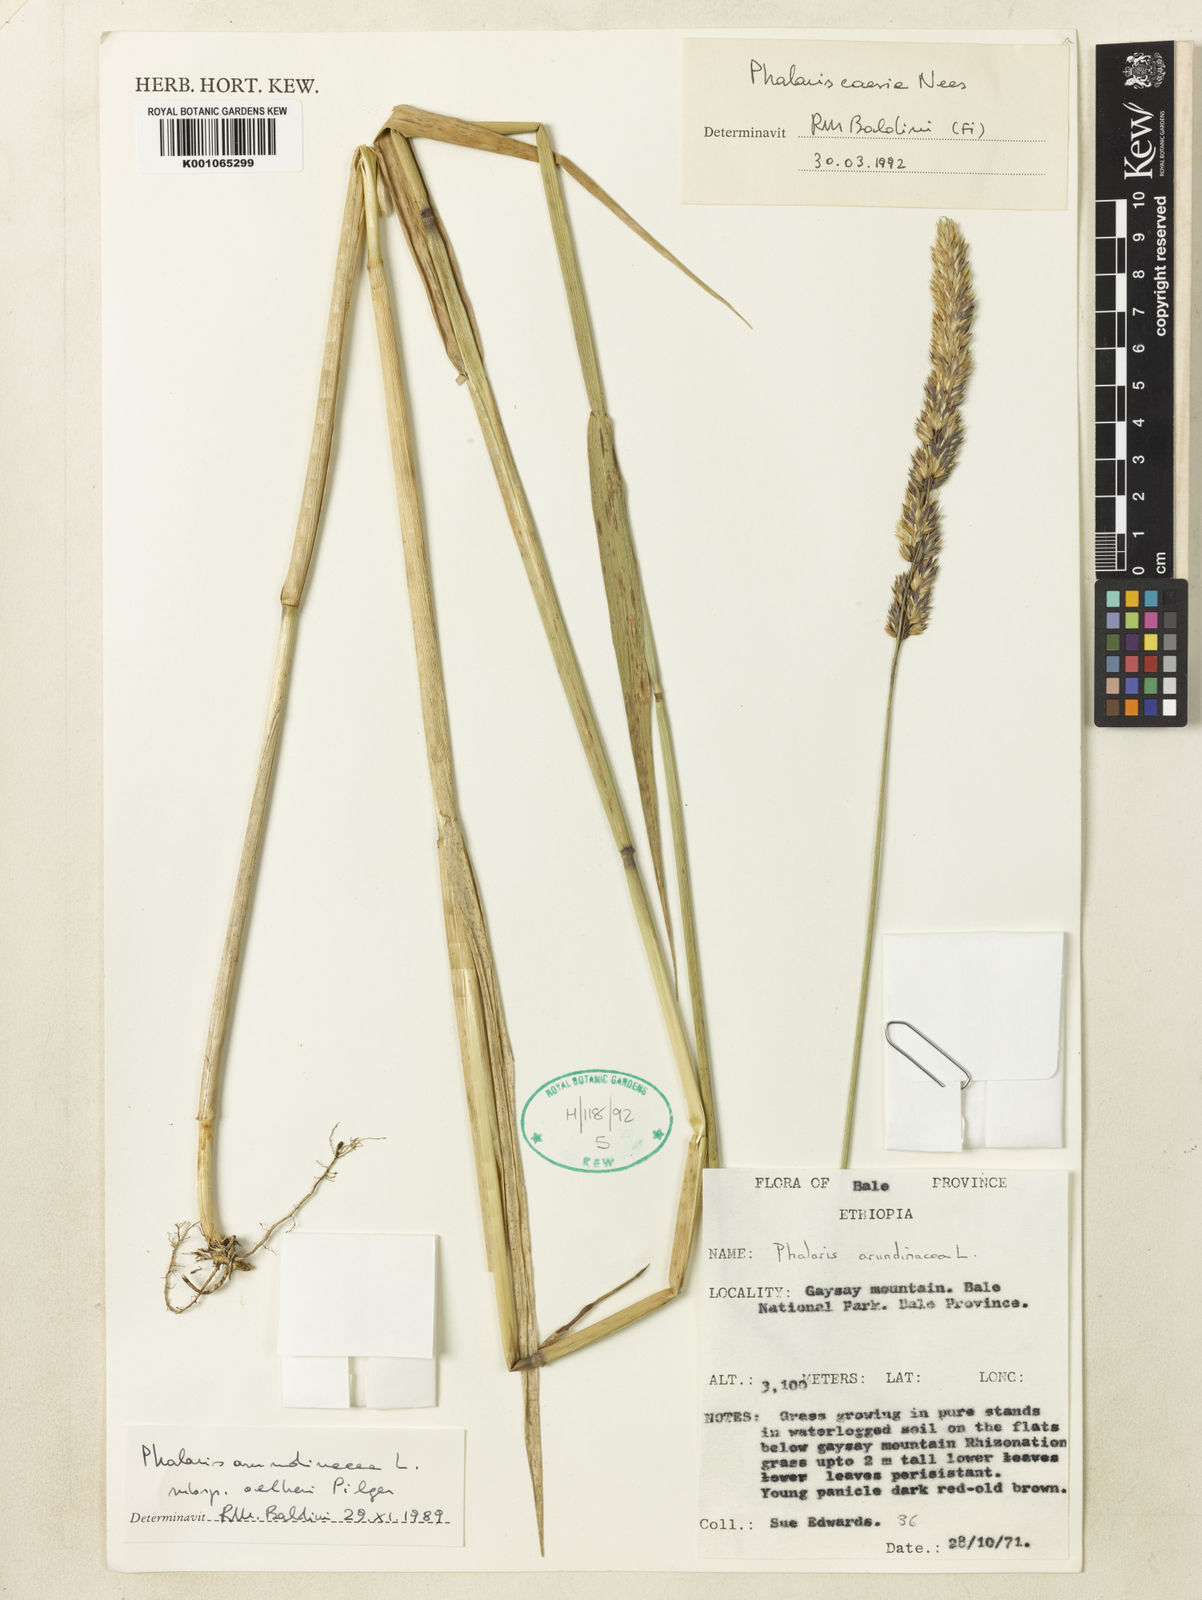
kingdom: Plantae
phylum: Tracheophyta
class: Liliopsida
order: Poales
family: Poaceae
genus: Phalaris
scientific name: Phalaris arundinacea
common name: Reed canary-grass
